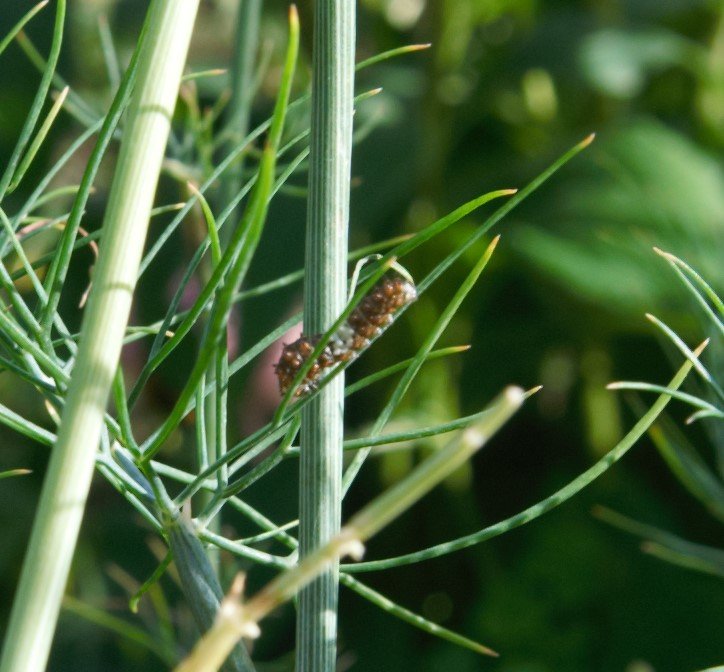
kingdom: Animalia
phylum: Arthropoda
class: Insecta
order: Lepidoptera
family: Papilionidae
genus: Papilio
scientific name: Papilio polyxenes
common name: Black Swallowtail
